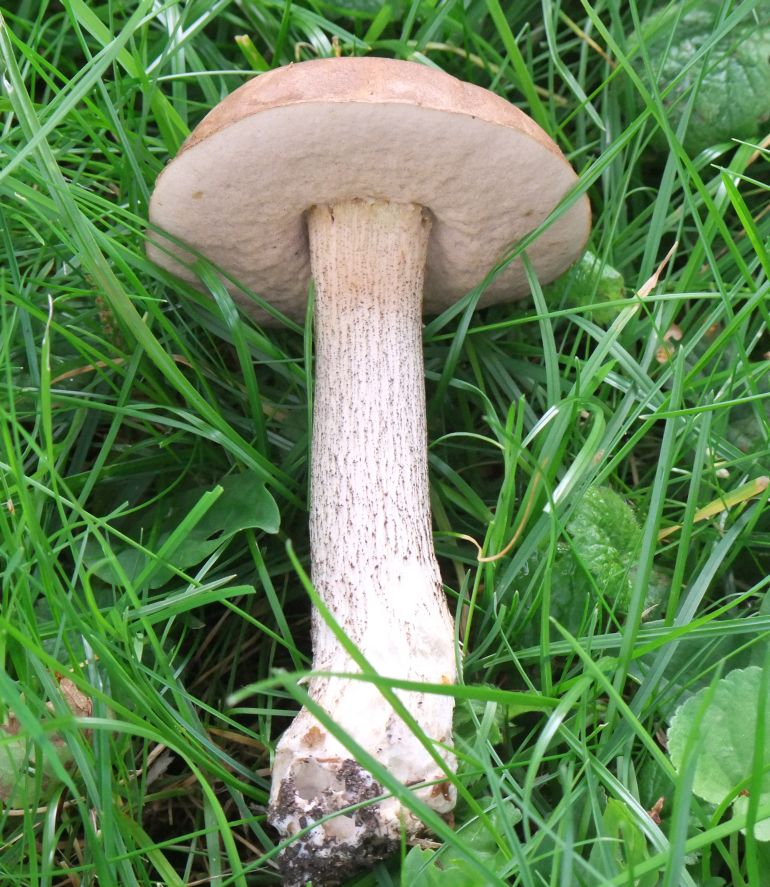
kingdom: Fungi
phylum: Basidiomycota
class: Agaricomycetes
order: Boletales
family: Boletaceae
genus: Leccinum
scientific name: Leccinum scabrum
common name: brun skælrørhat
